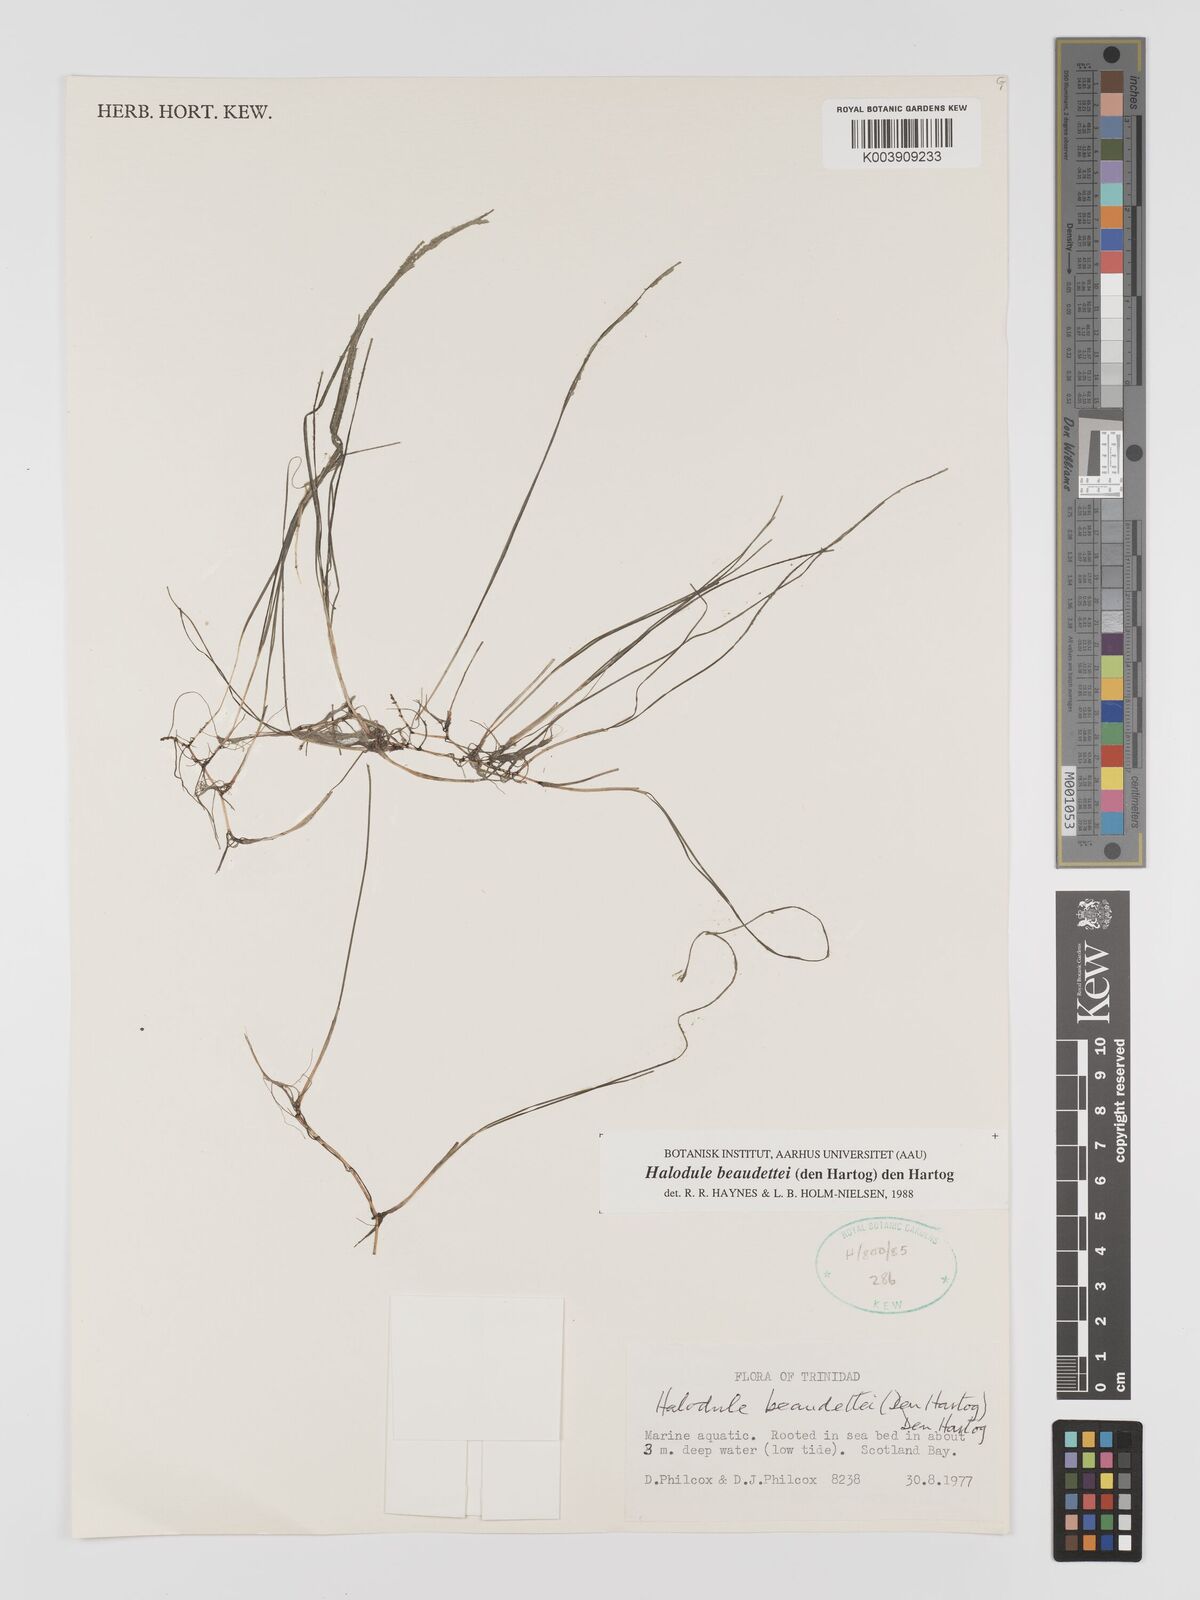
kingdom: Plantae
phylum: Tracheophyta
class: Liliopsida
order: Alismatales
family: Cymodoceaceae
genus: Halodule
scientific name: Halodule wrightii
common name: Shoalgrass
